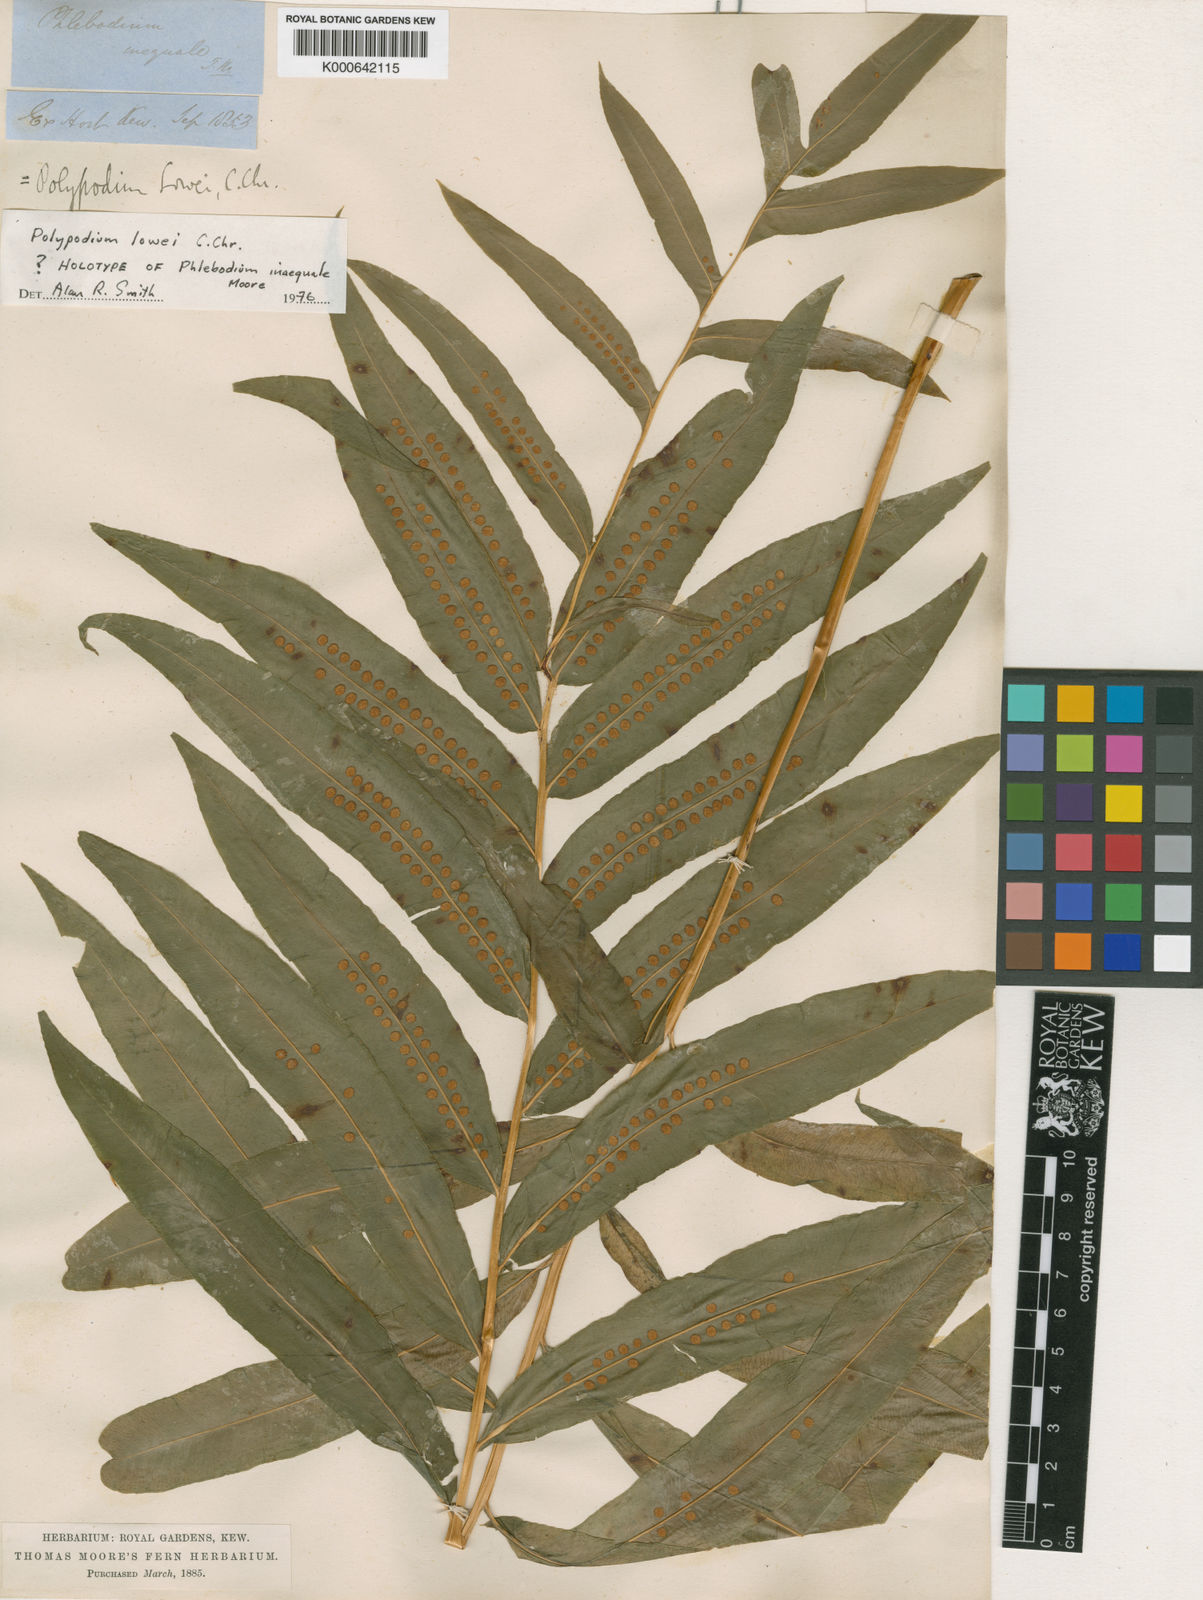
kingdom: Plantae
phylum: Tracheophyta
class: Polypodiopsida
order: Polypodiales
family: Polypodiaceae
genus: Polypodium
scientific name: Polypodium
